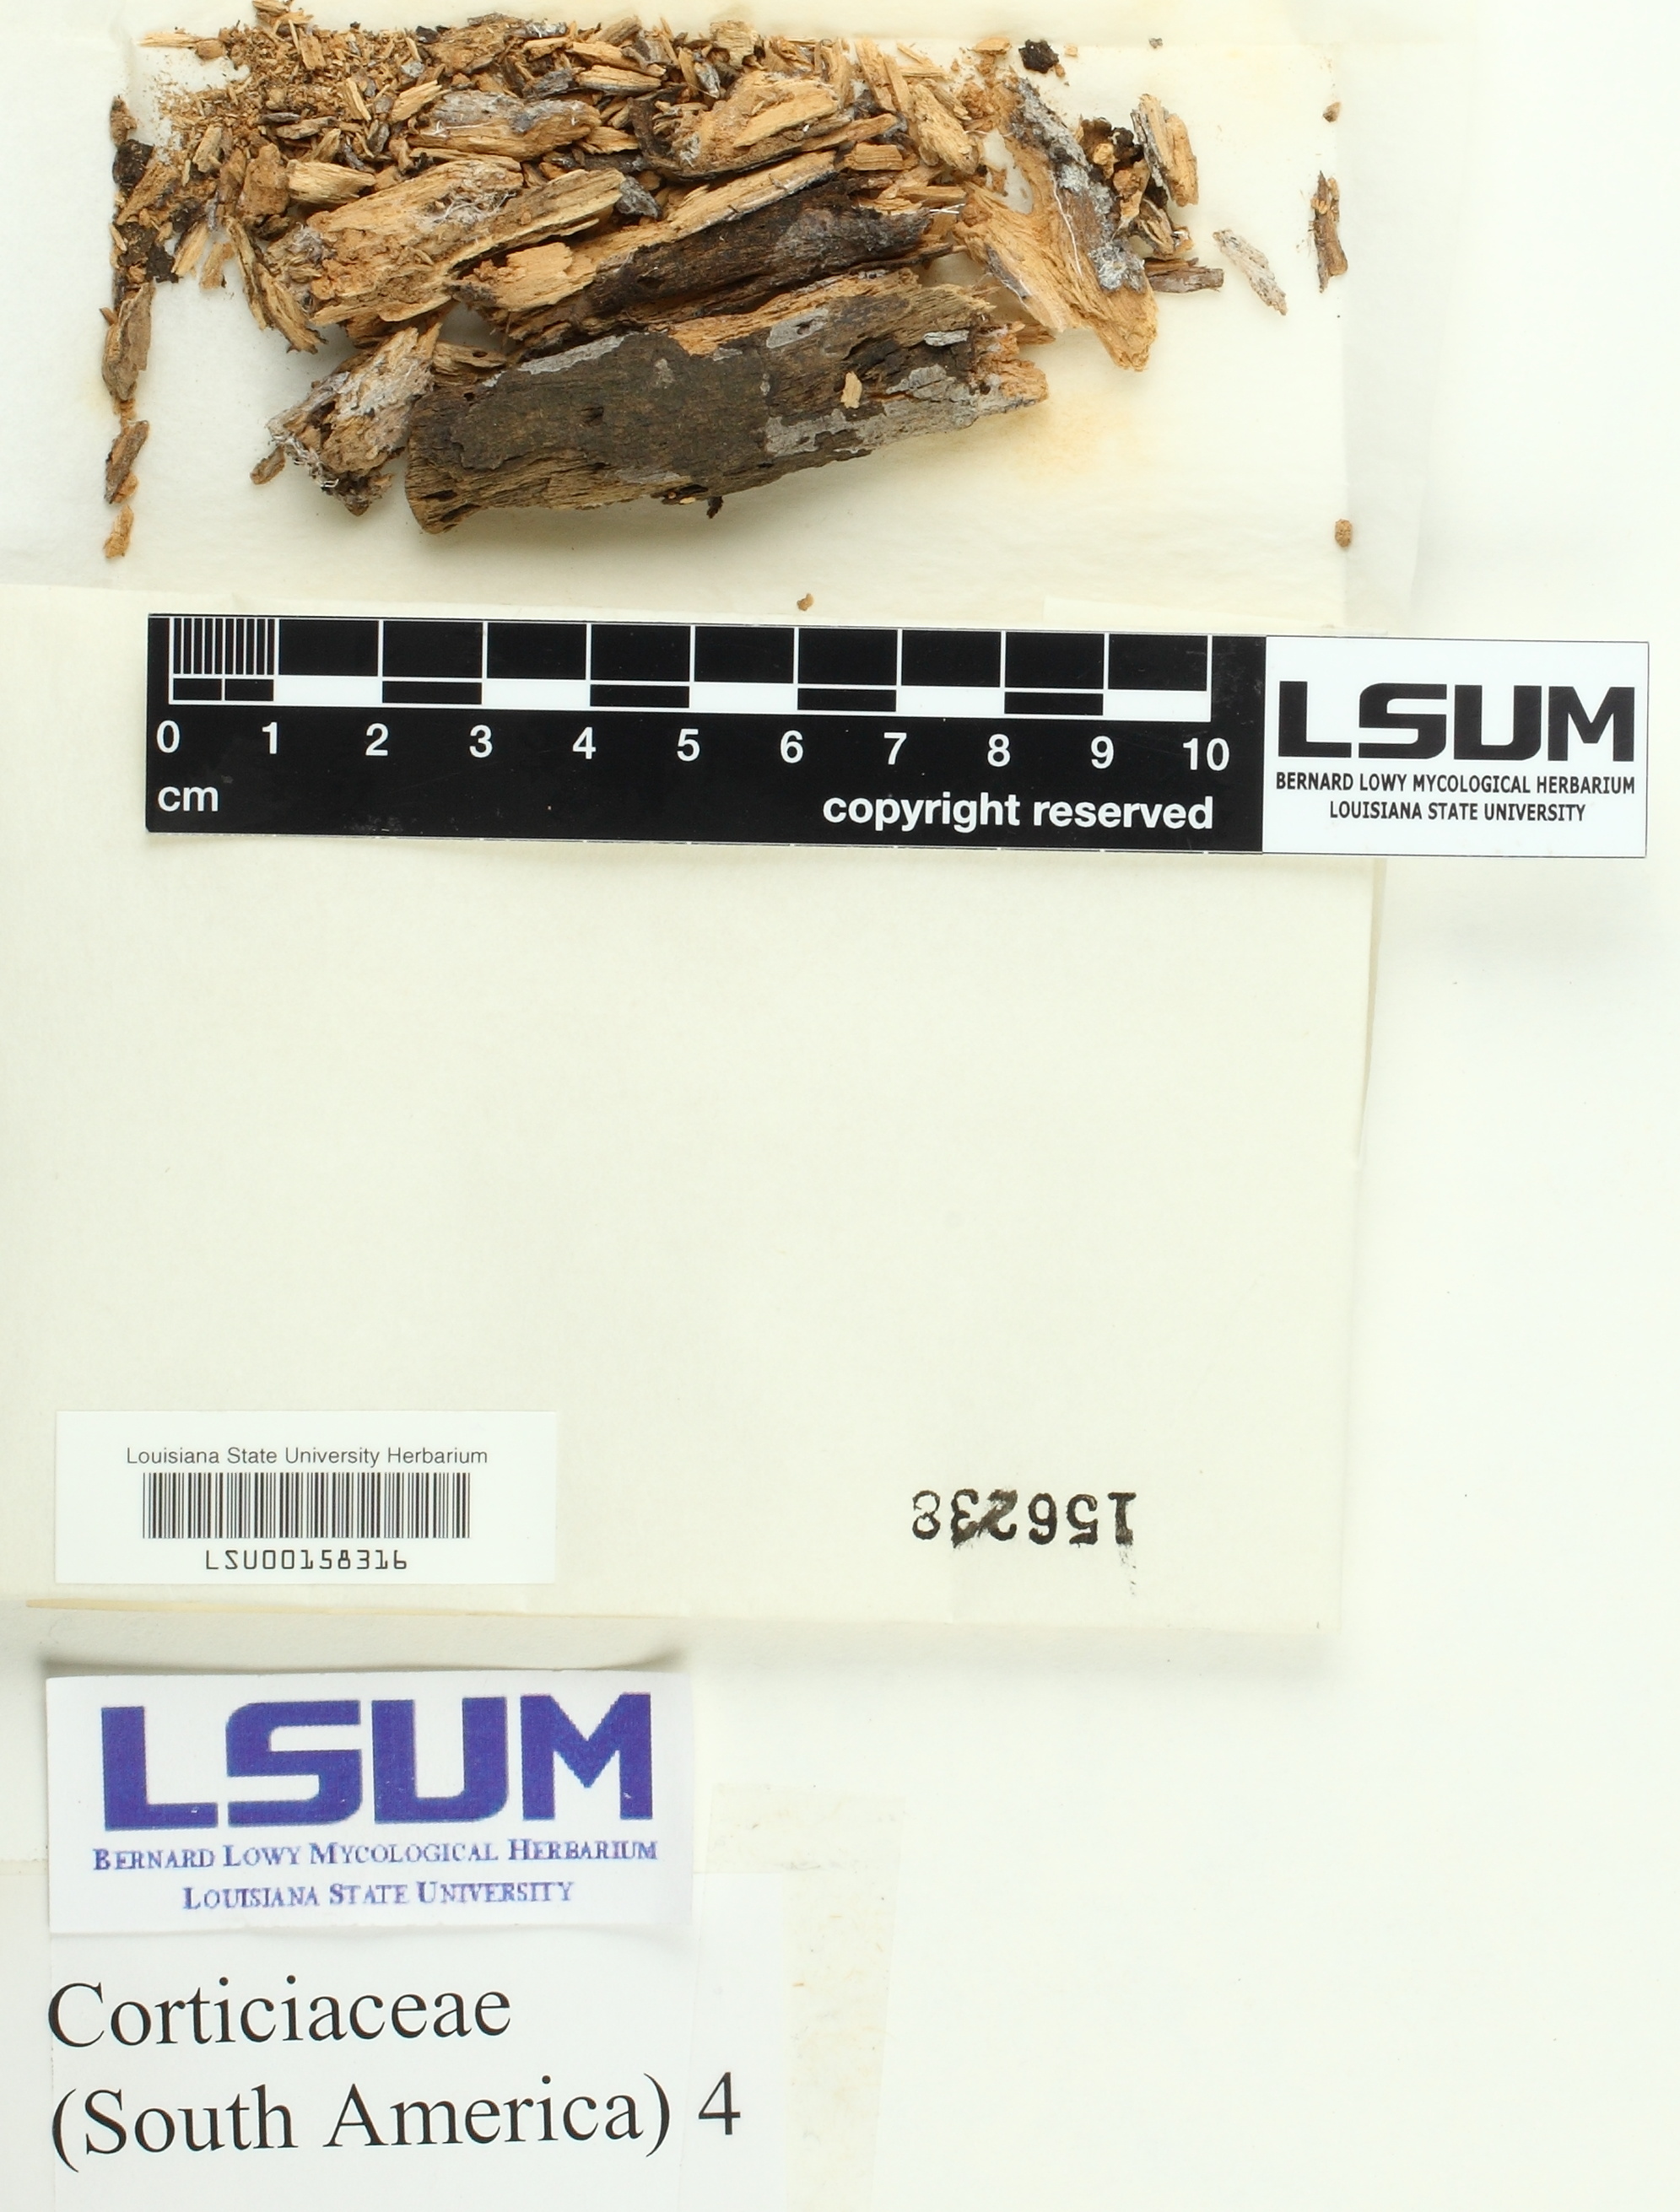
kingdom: Fungi
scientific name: Fungi
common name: Fungi
